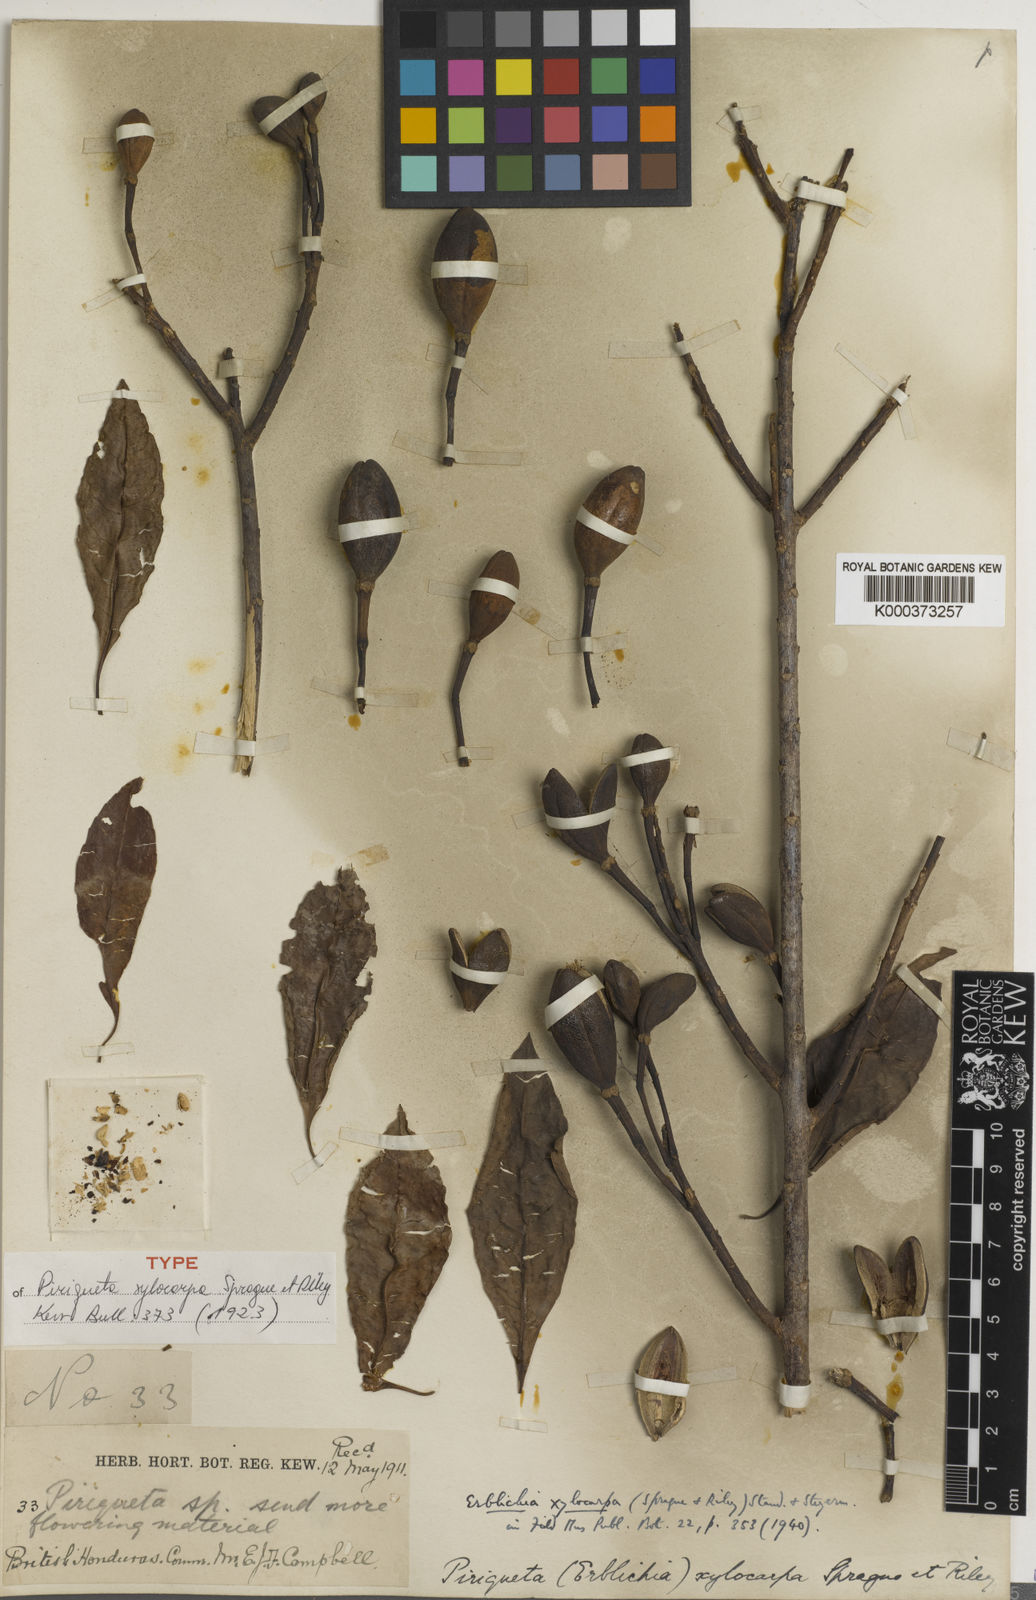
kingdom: Plantae
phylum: Tracheophyta
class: Magnoliopsida
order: Malpighiales
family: Turneraceae
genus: Erblichia
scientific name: Erblichia odorata
